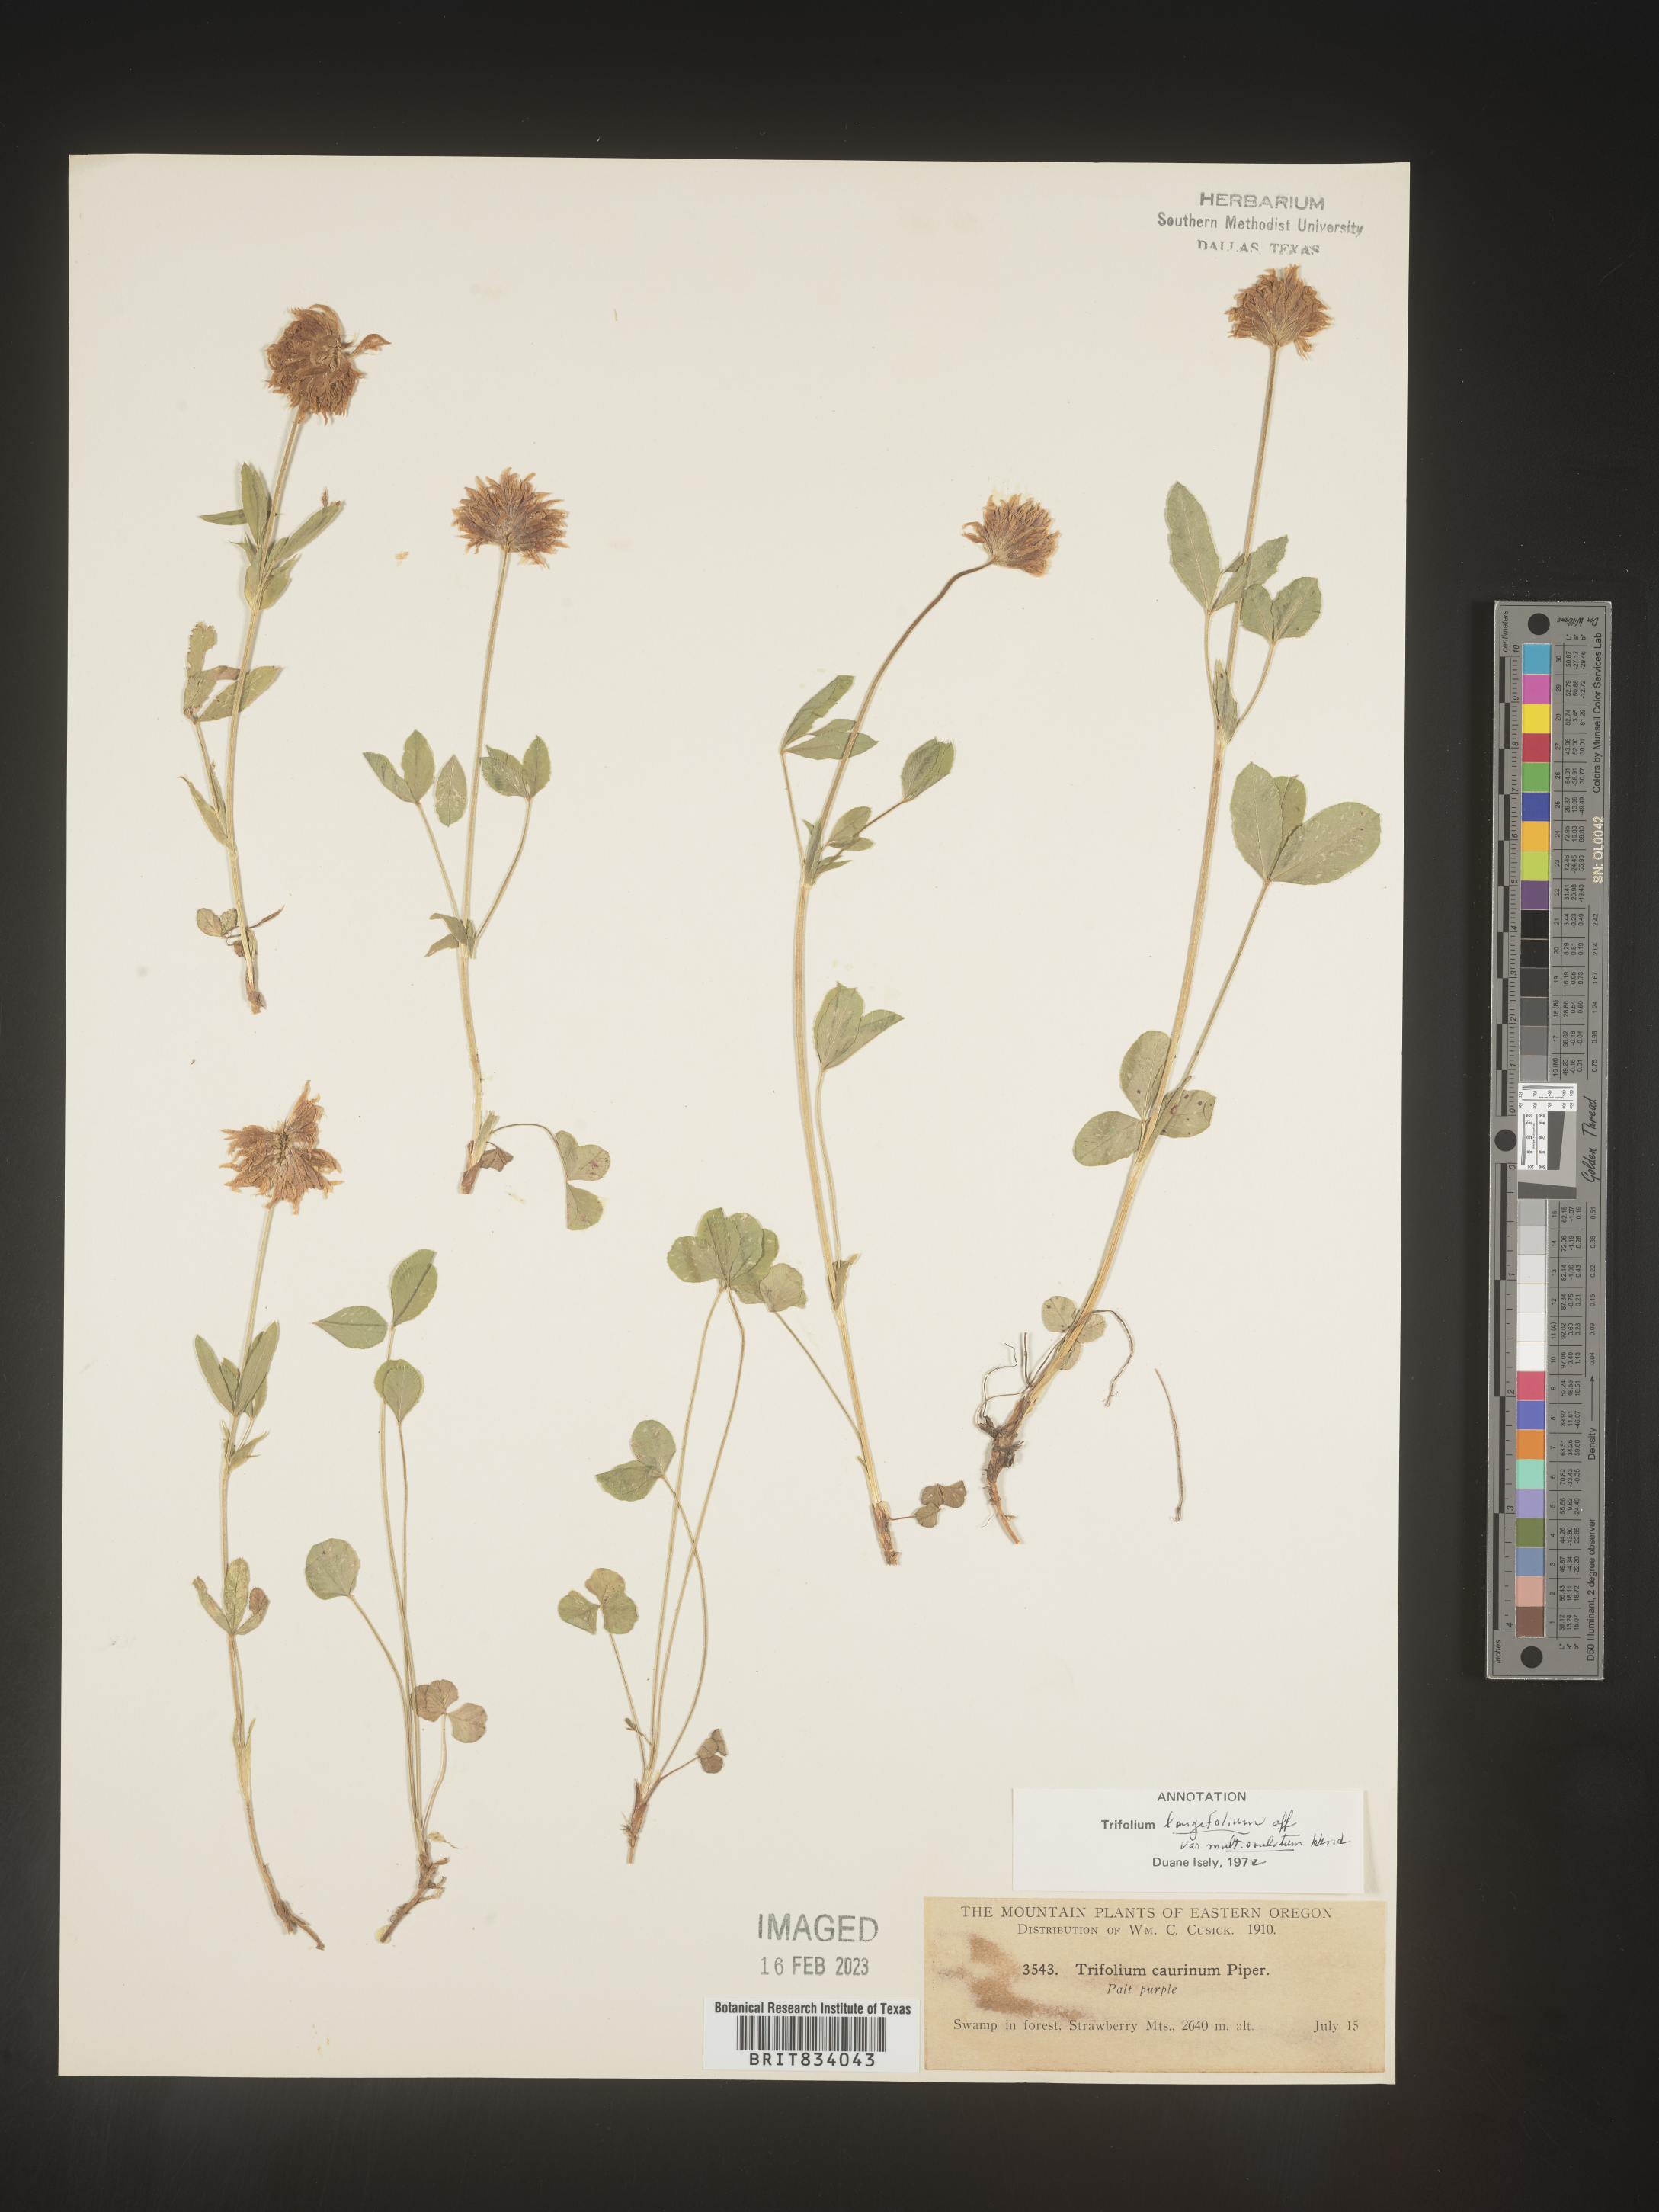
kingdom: Plantae
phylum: Tracheophyta
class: Magnoliopsida
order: Fabales
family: Fabaceae
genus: Trifolium
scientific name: Trifolium
